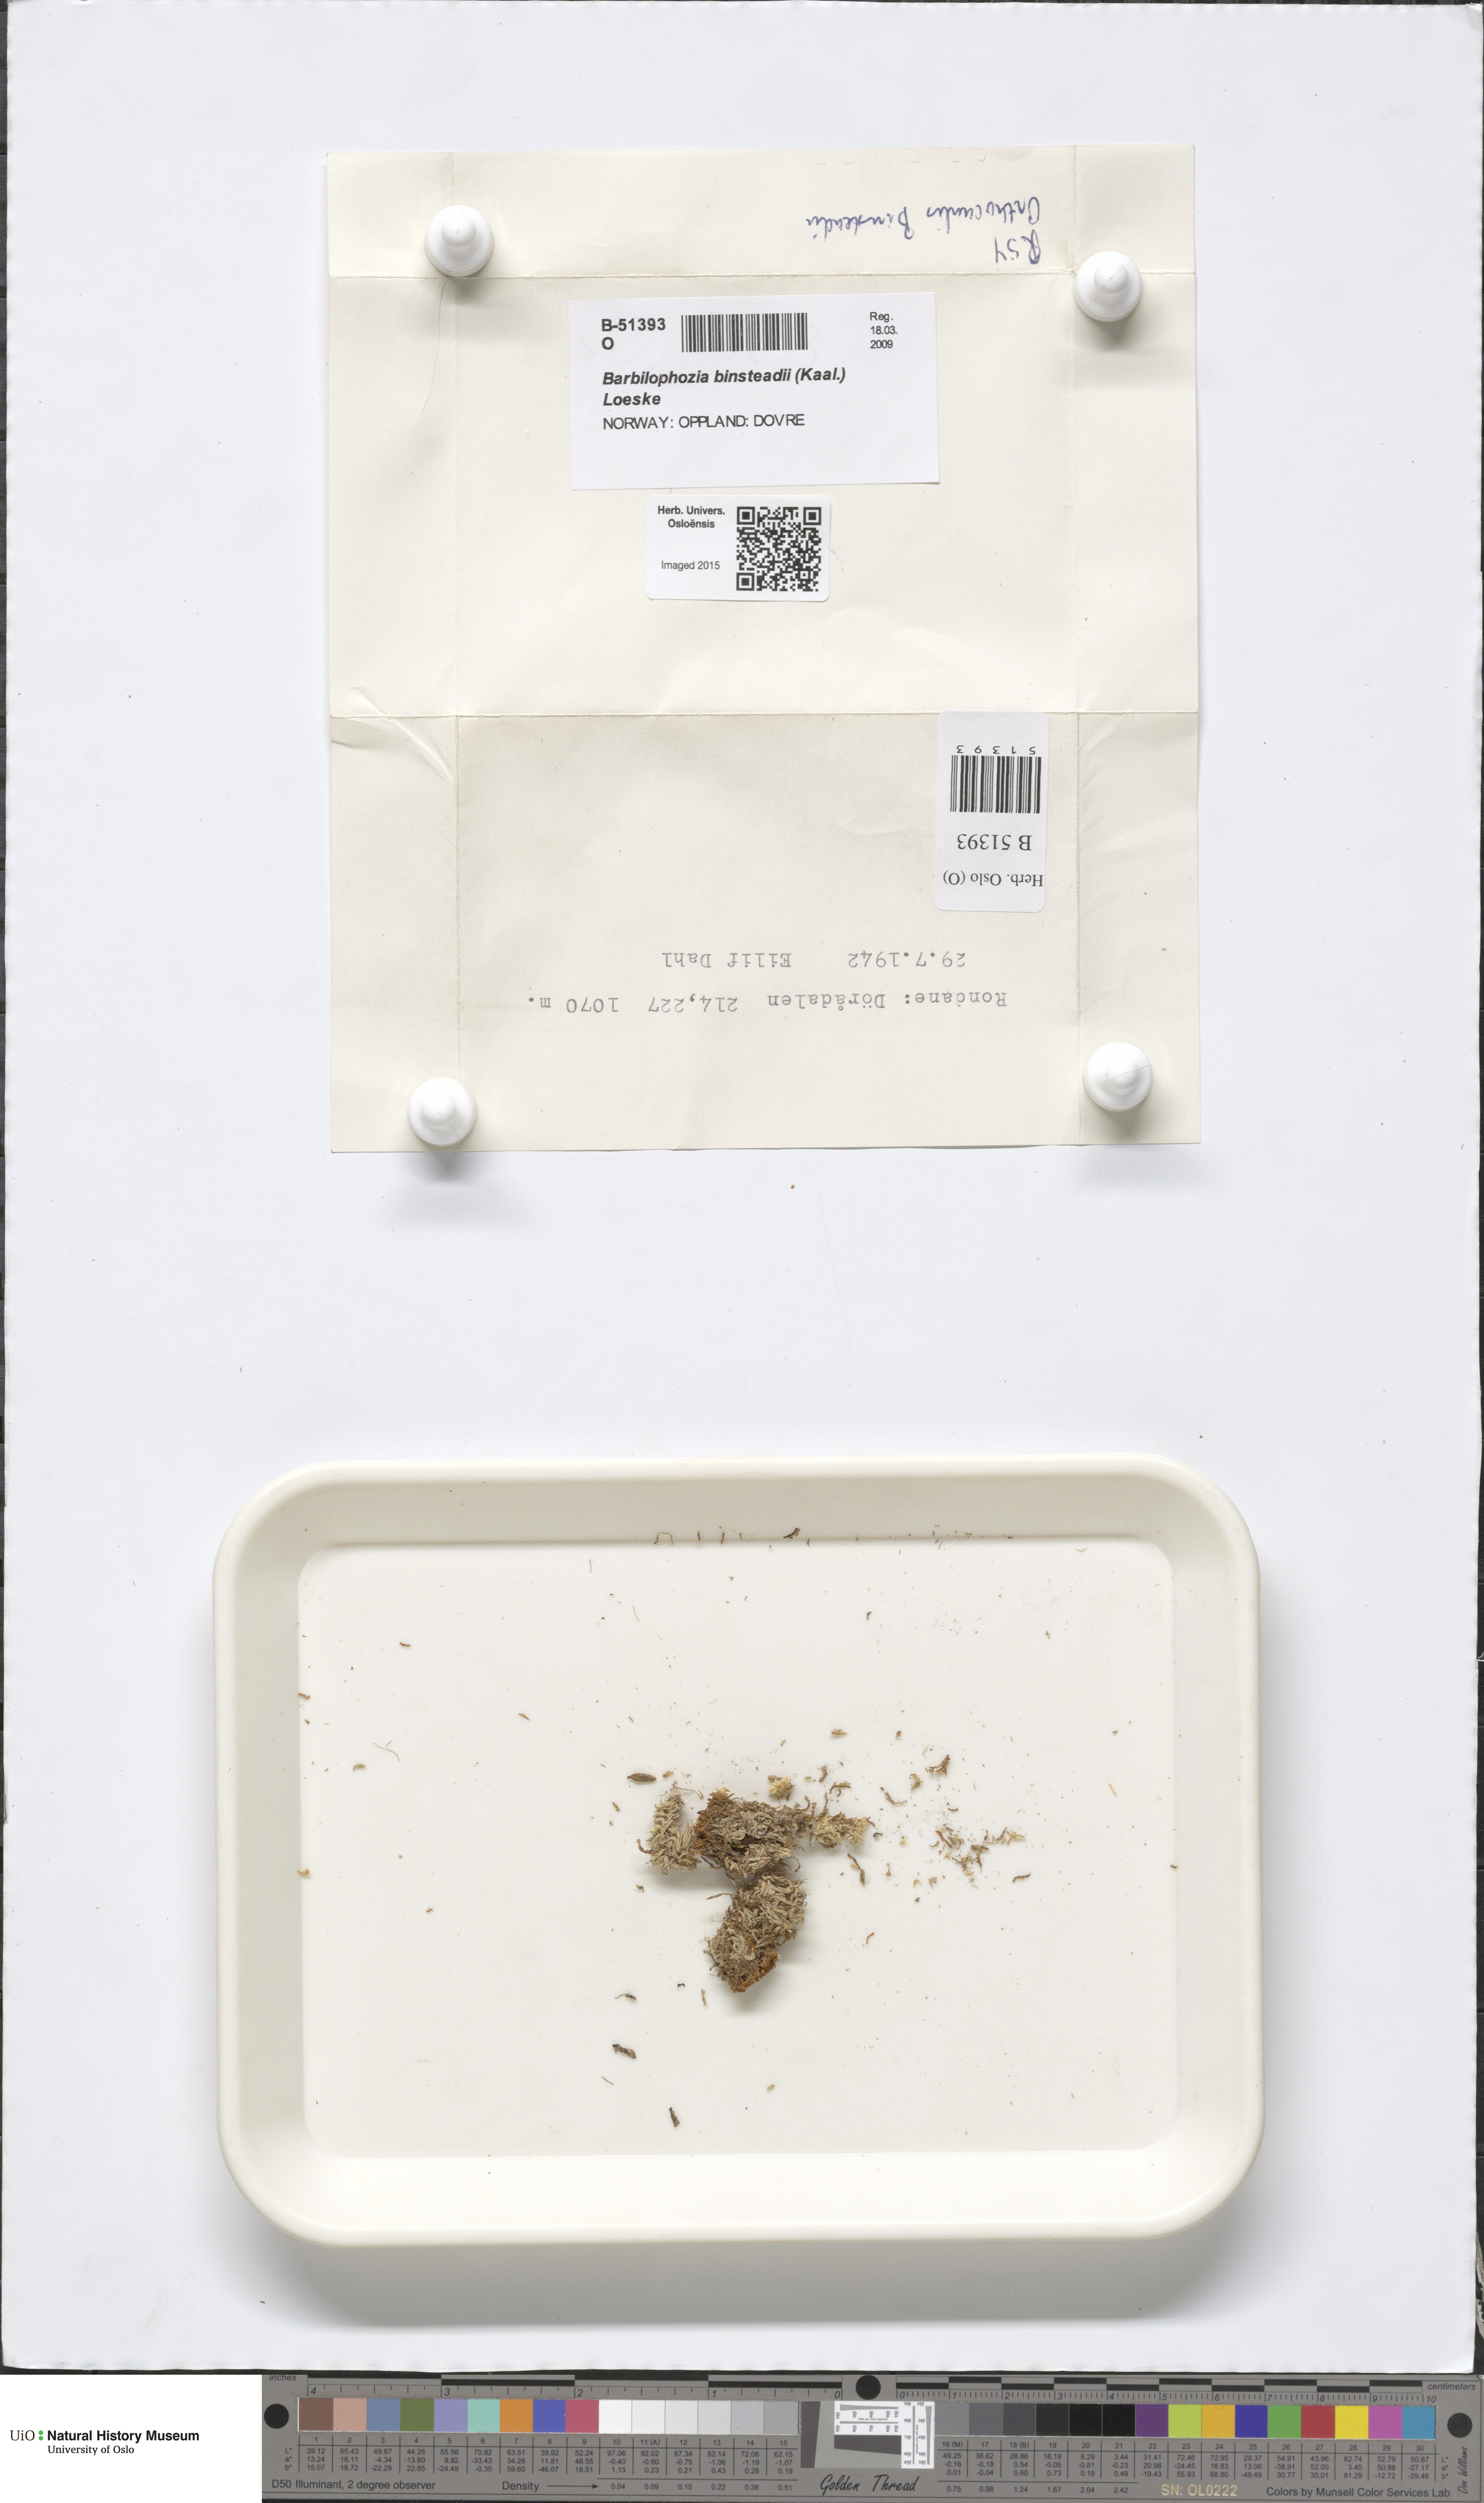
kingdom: Plantae
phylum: Marchantiophyta
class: Jungermanniopsida
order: Jungermanniales
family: Anastrophyllaceae
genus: Neoorthocaulis
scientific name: Neoorthocaulis binsteadii
